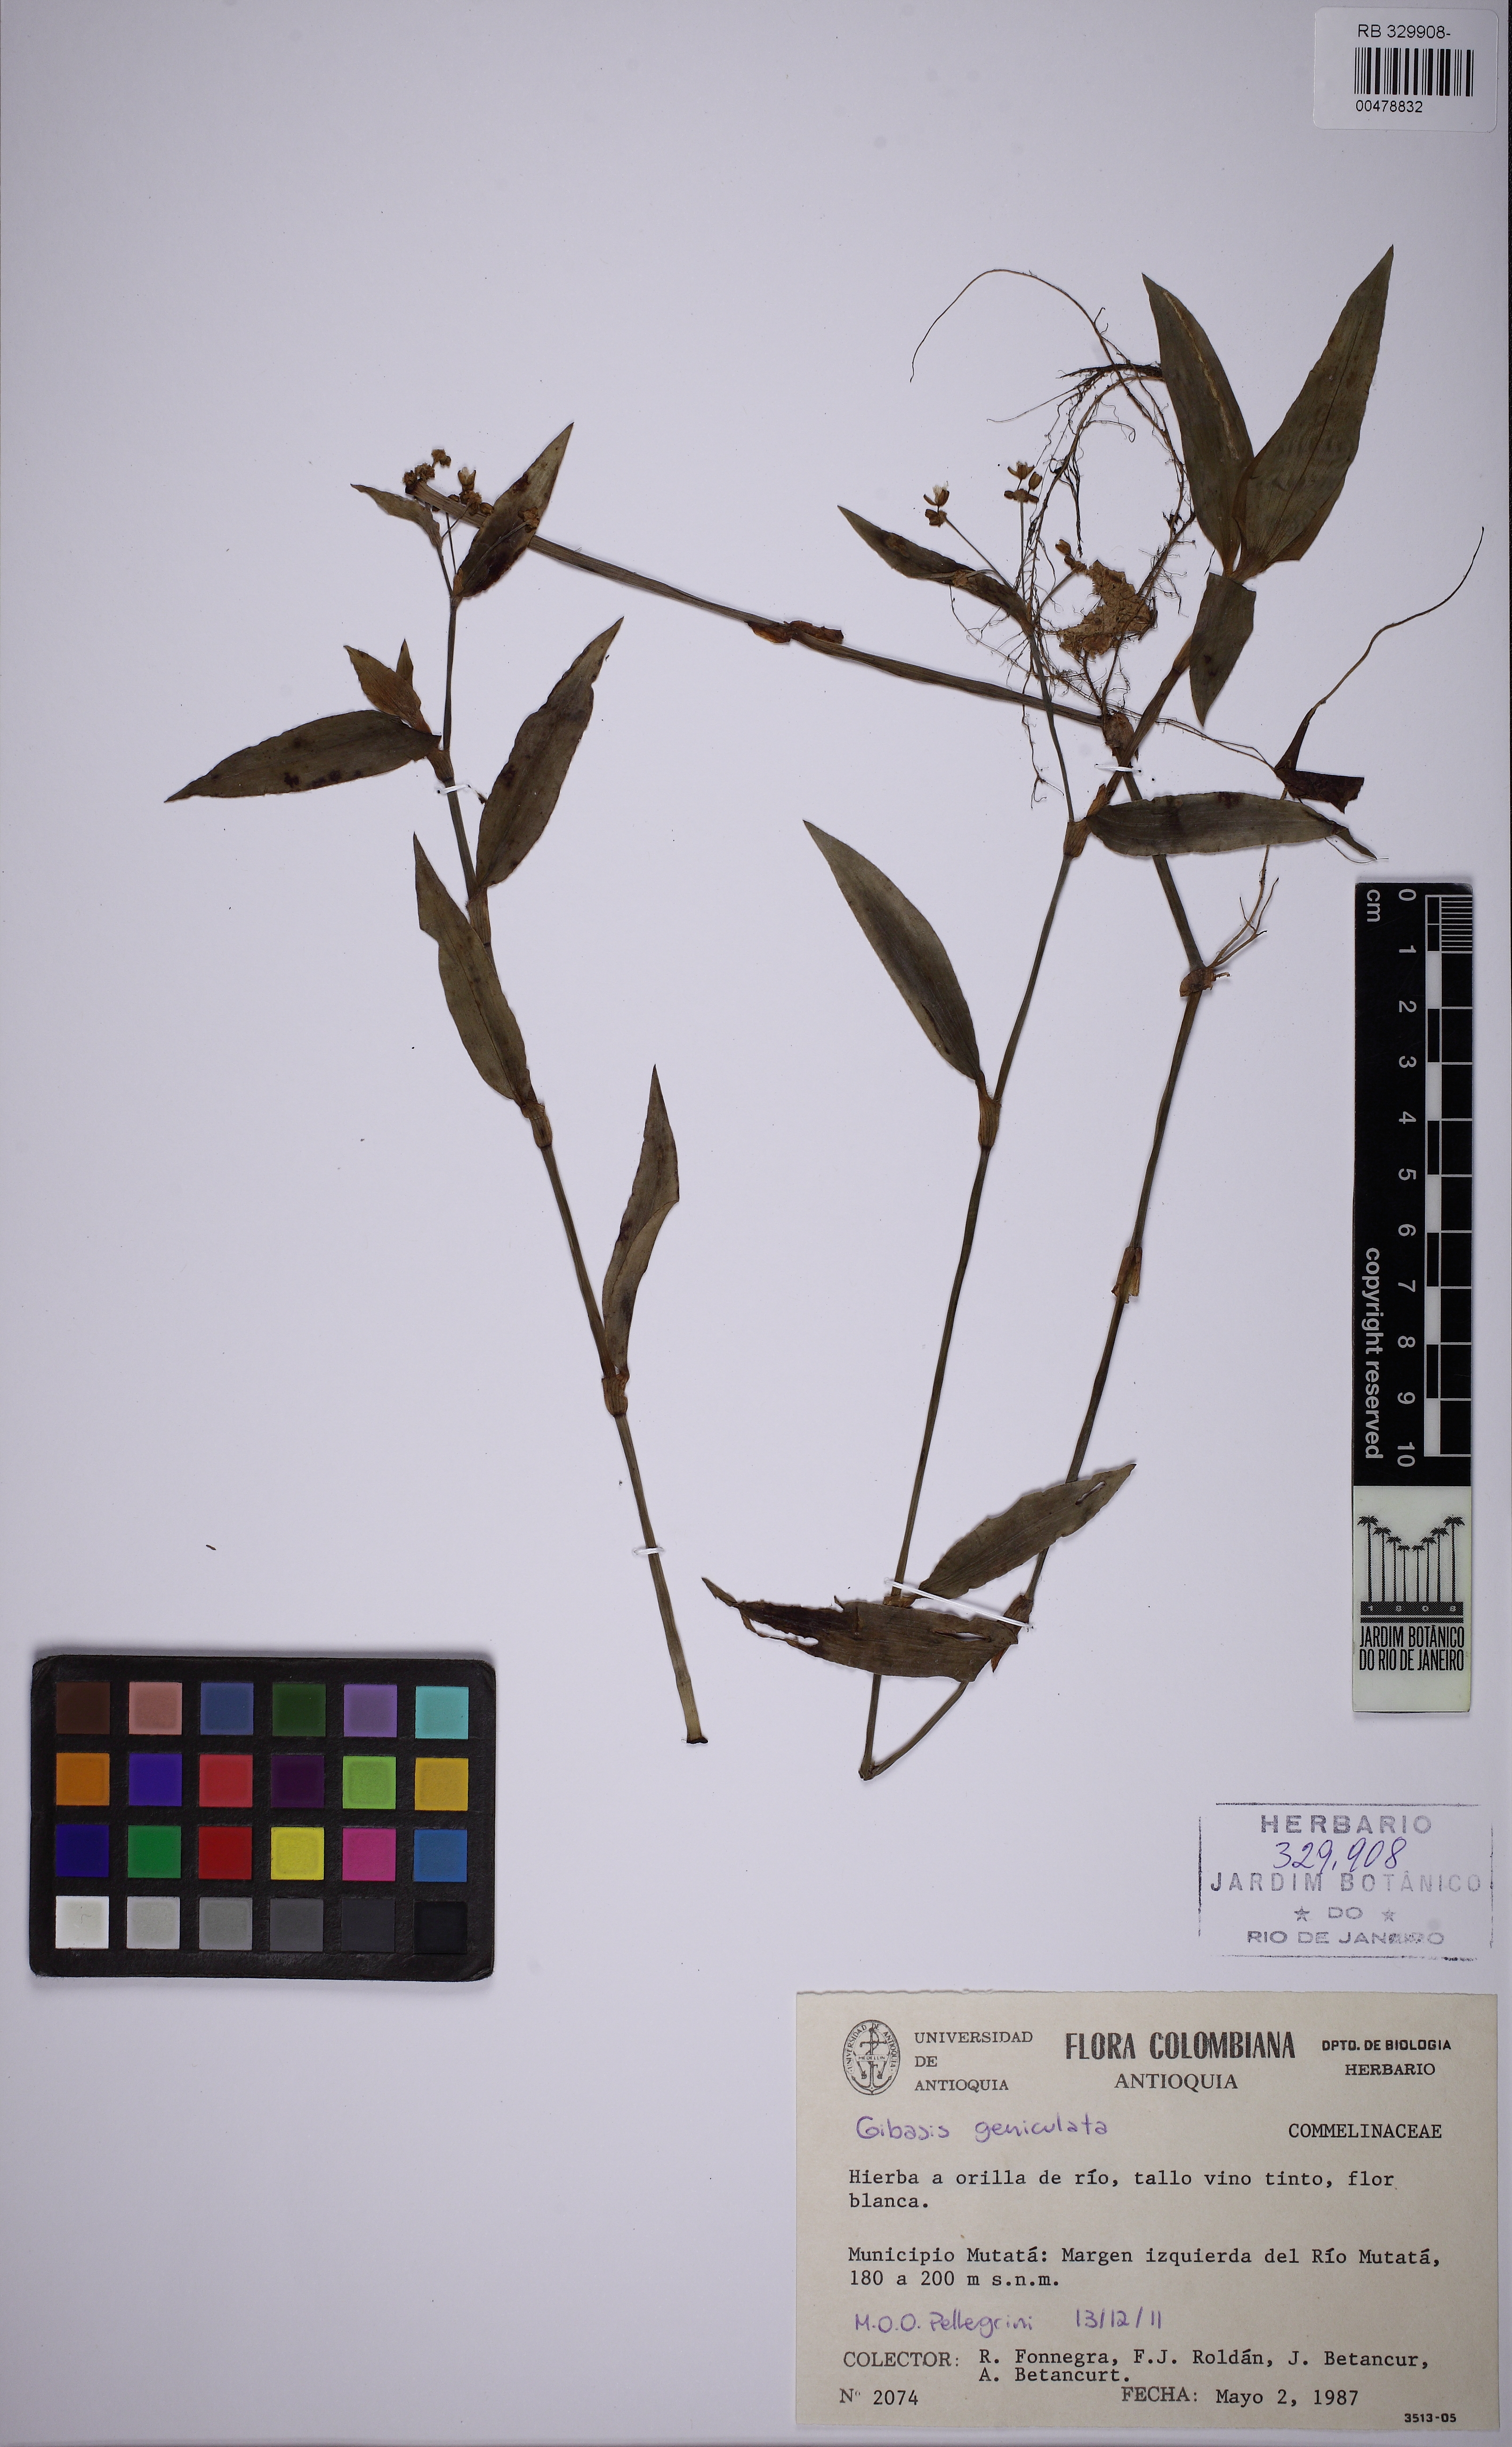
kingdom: Plantae
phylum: Tracheophyta
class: Liliopsida
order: Commelinales
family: Commelinaceae
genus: Gibasis
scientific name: Gibasis geniculata
